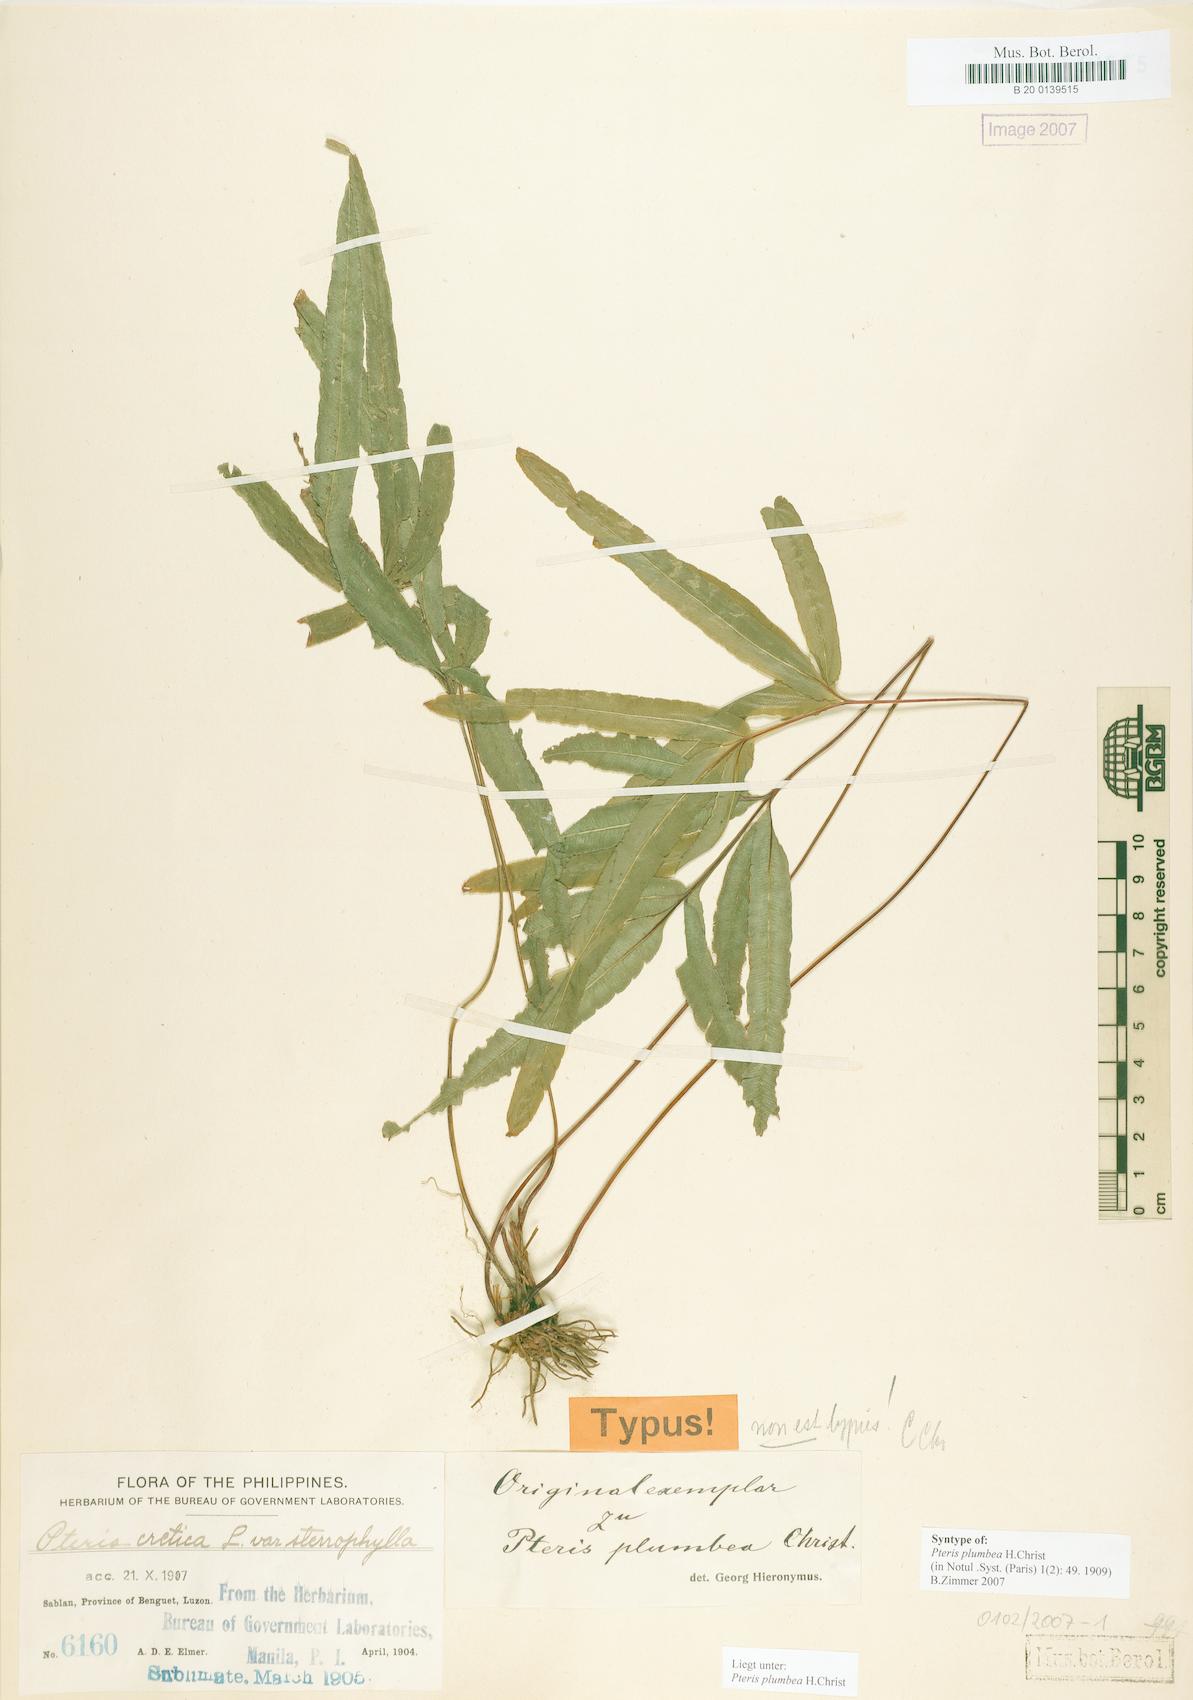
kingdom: Plantae
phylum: Tracheophyta
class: Polypodiopsida
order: Polypodiales
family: Pteridaceae
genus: Pteris
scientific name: Pteris cadieri
